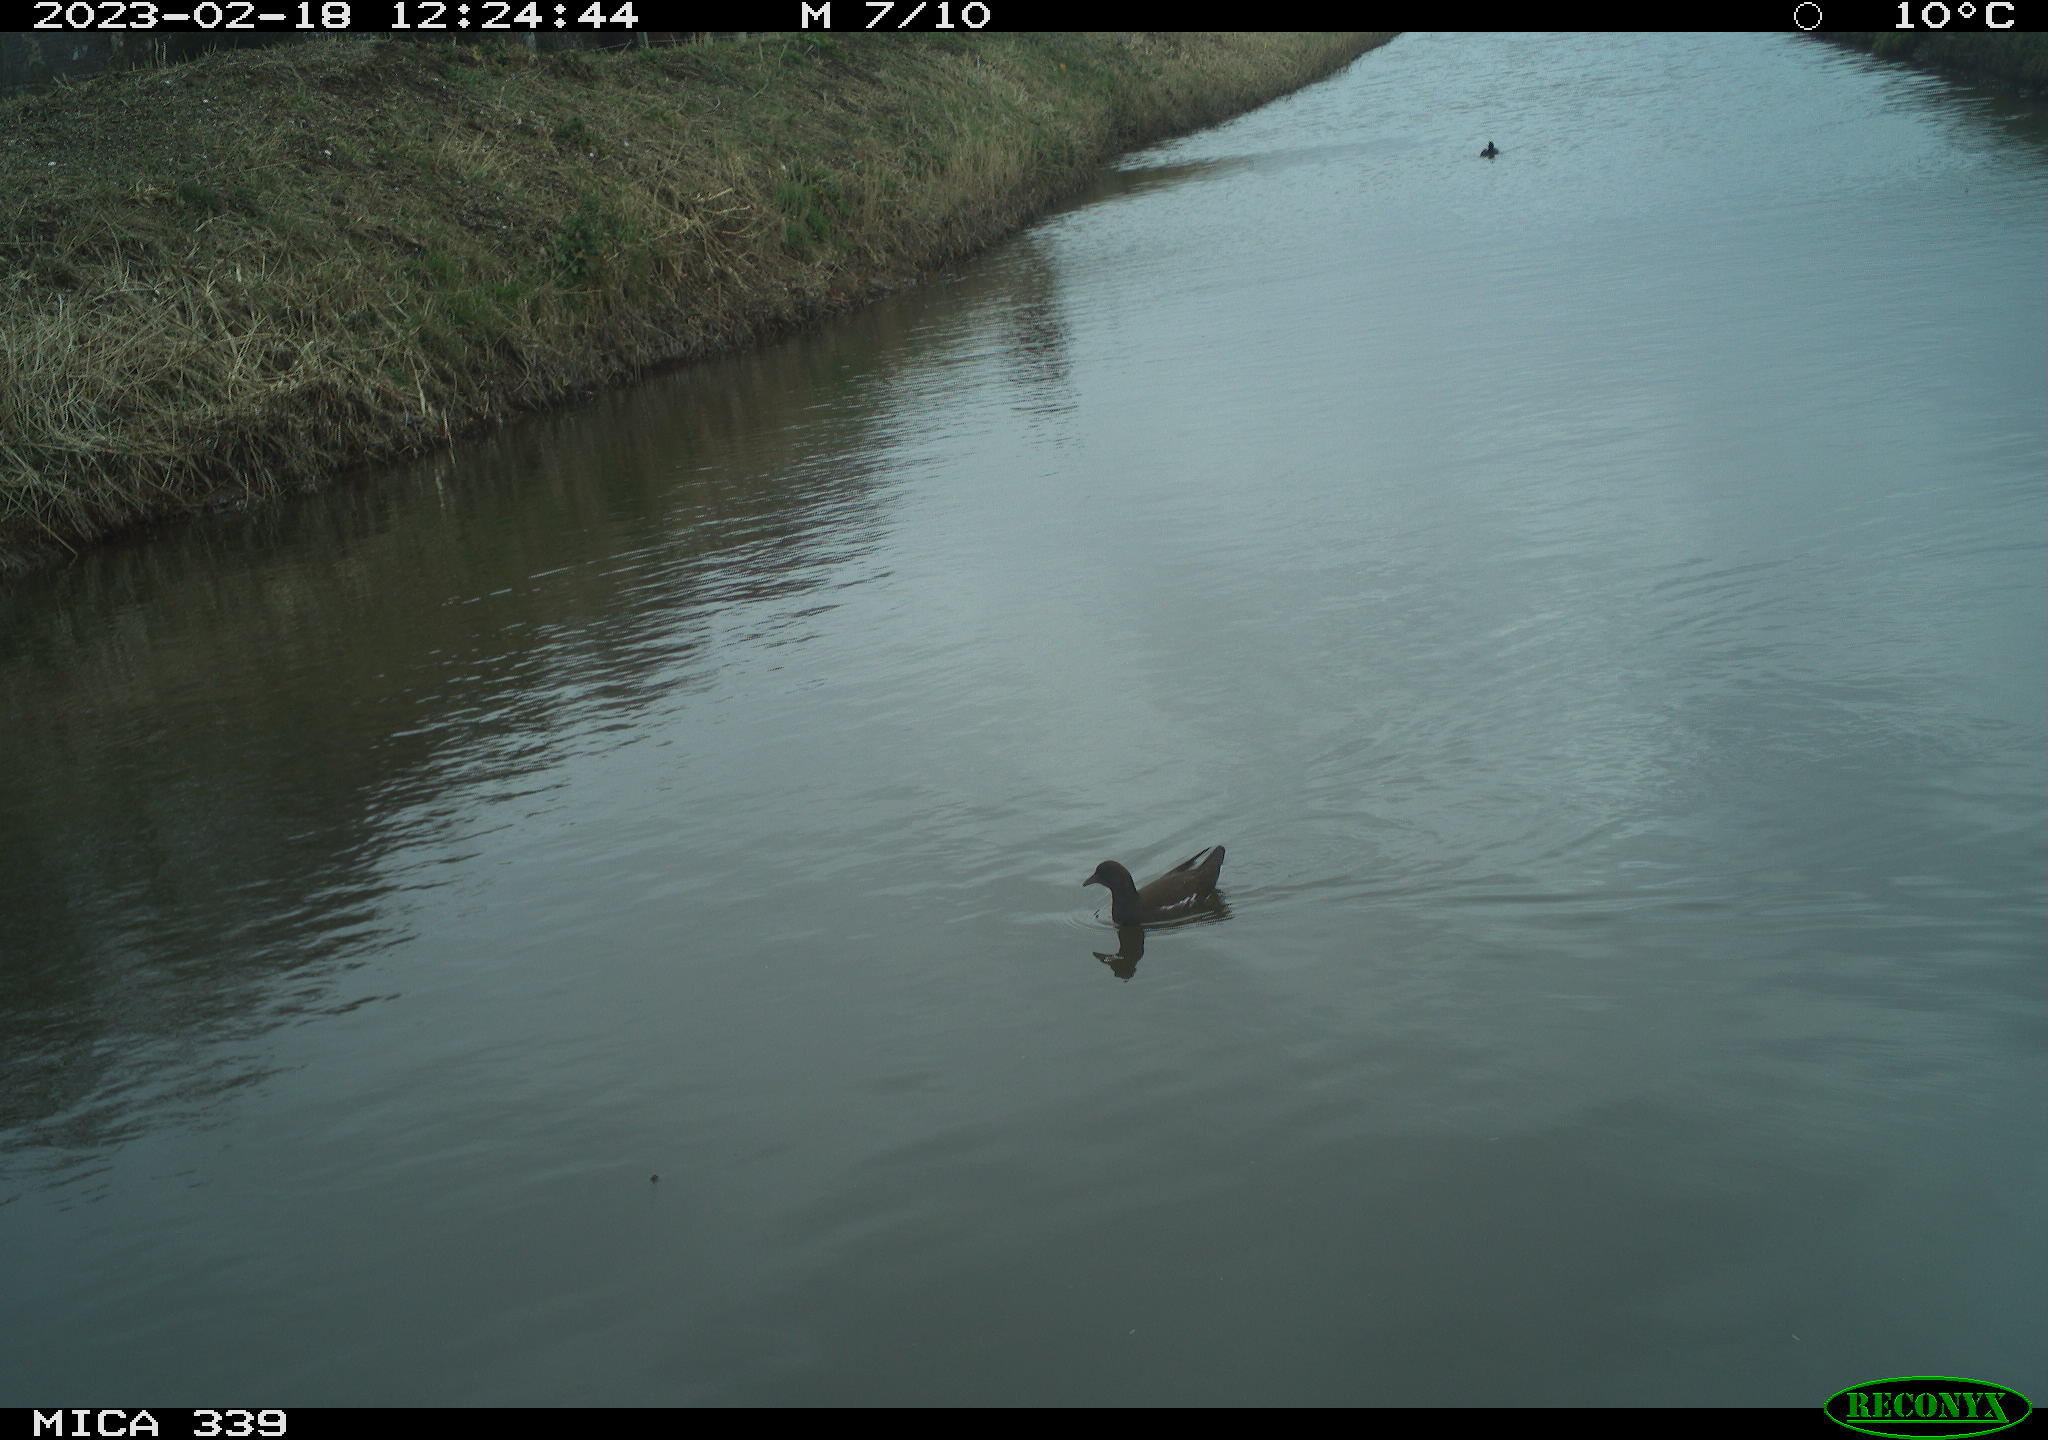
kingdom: Animalia
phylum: Chordata
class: Aves
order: Gruiformes
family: Rallidae
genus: Gallinula
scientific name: Gallinula chloropus
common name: Common moorhen
